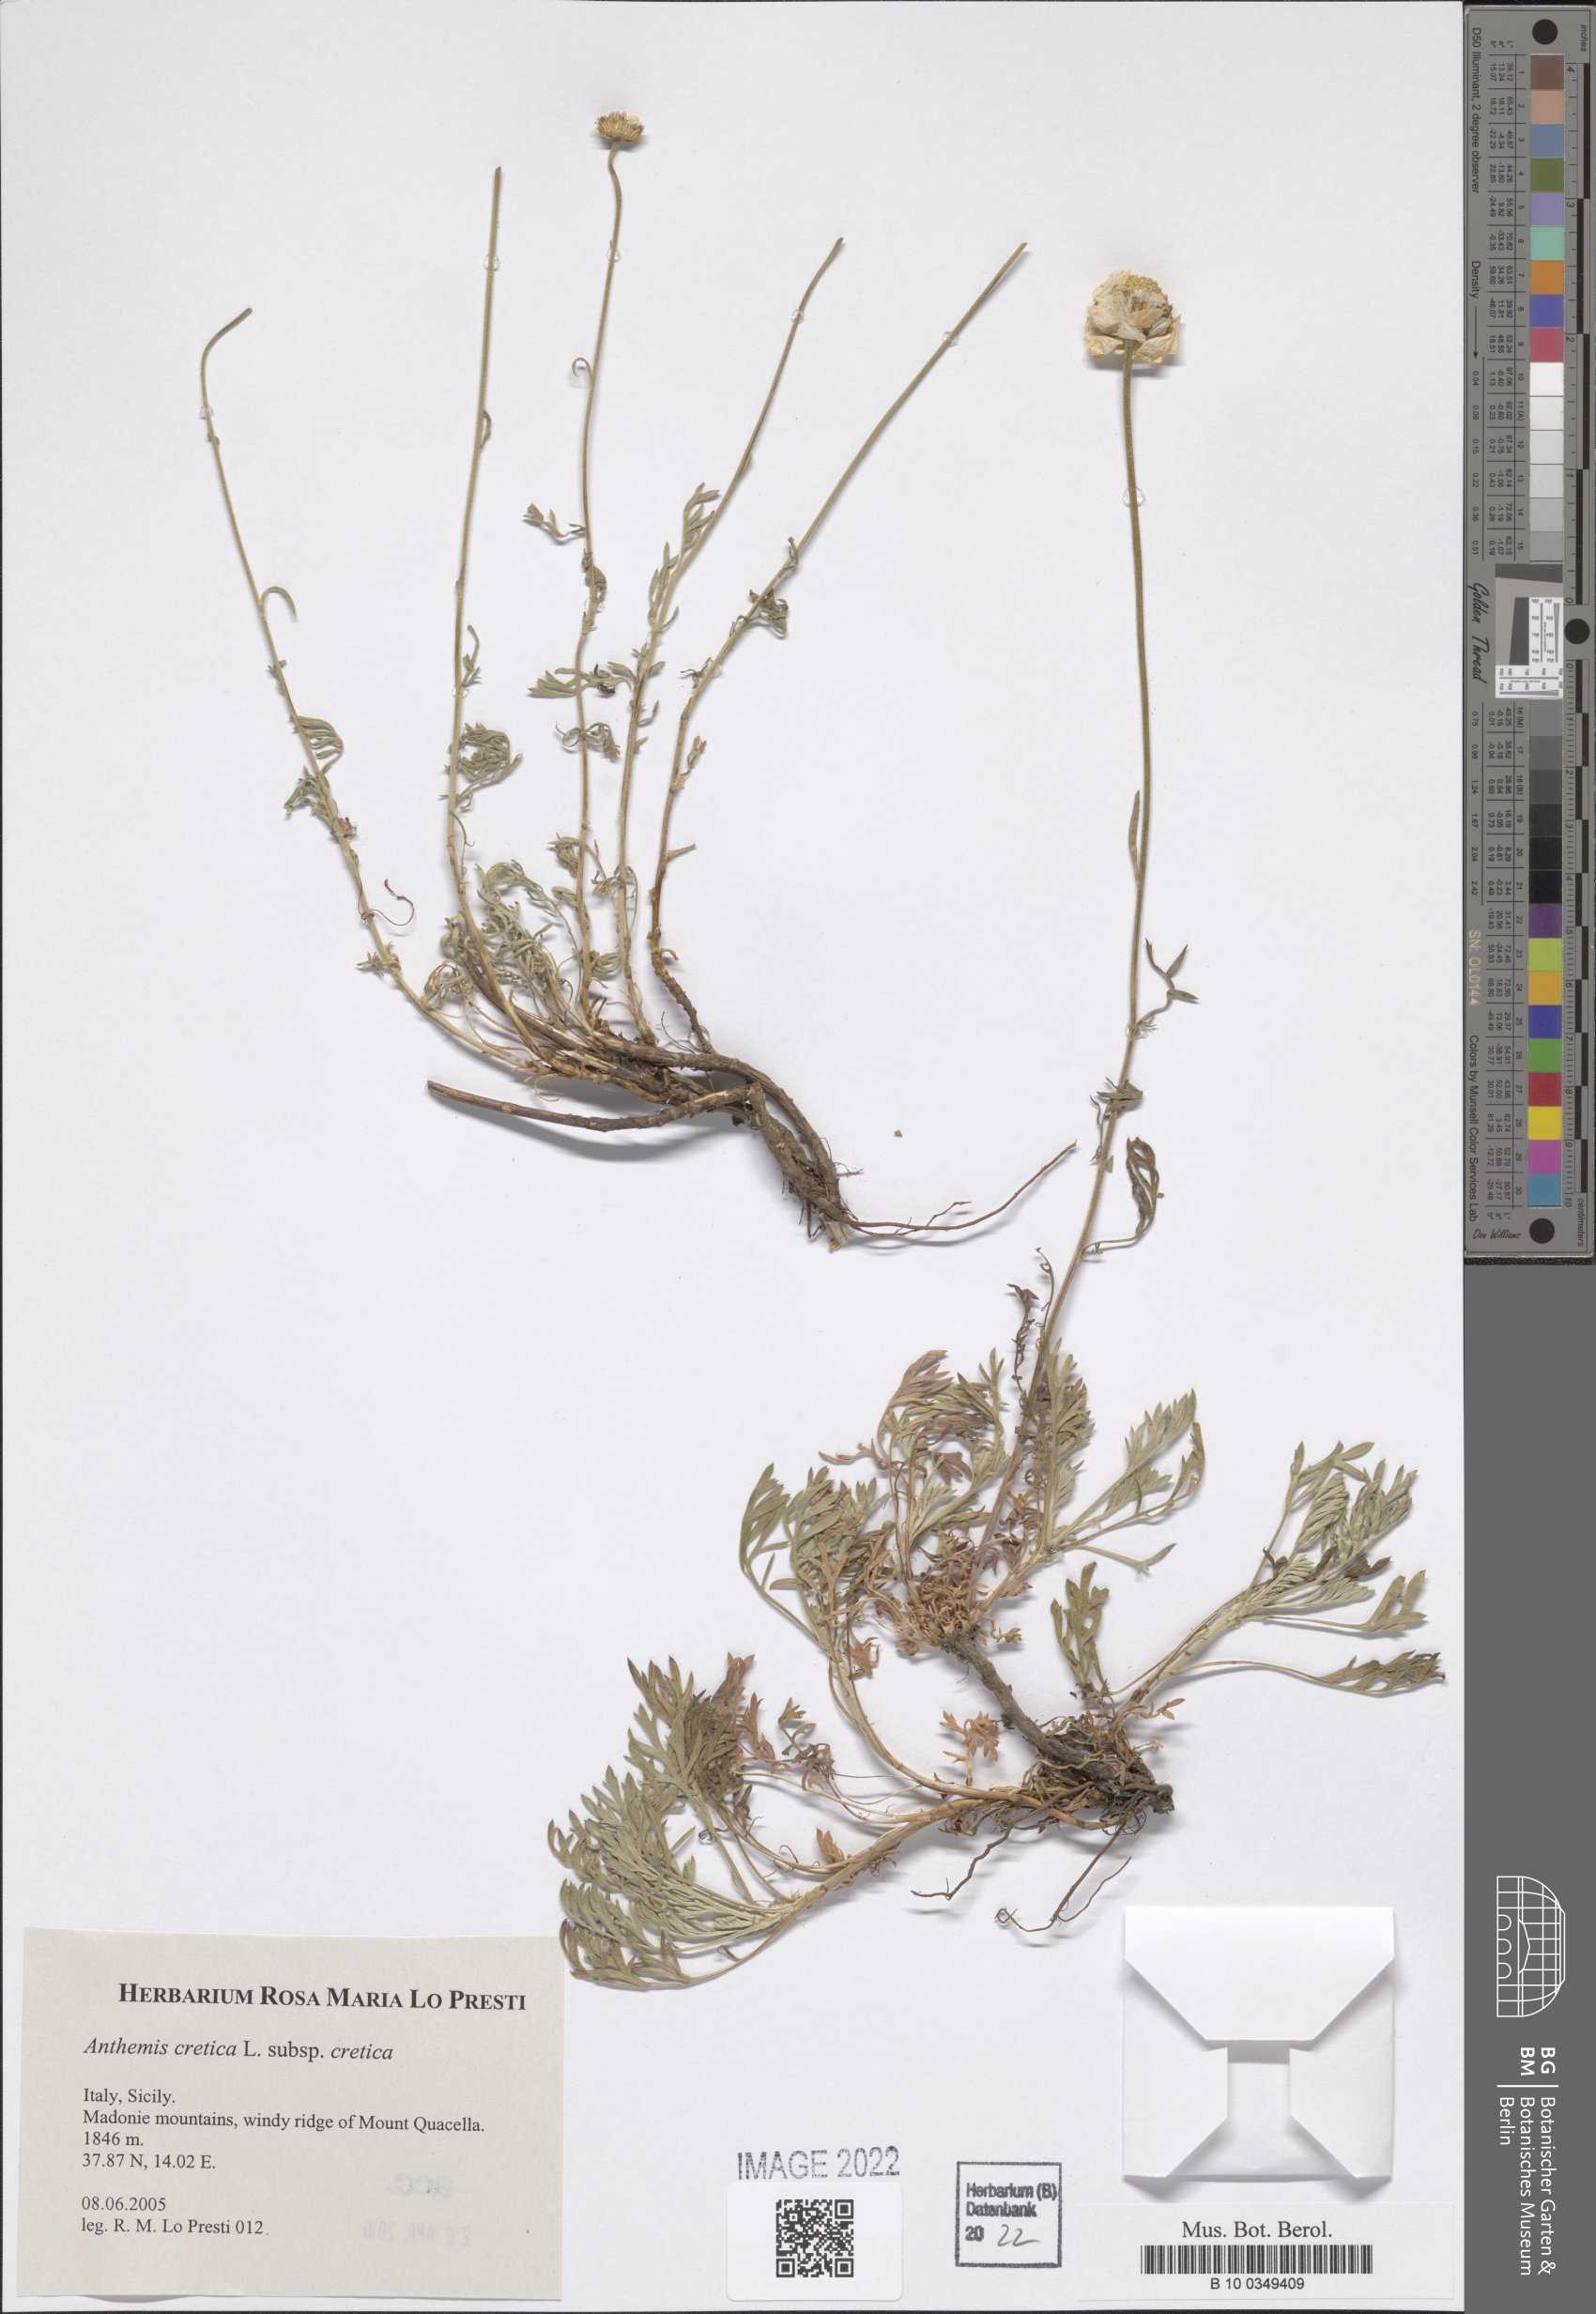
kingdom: Plantae
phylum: Tracheophyta
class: Magnoliopsida
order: Asterales
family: Asteraceae
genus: Anthemis
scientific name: Anthemis cretica
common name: Mountain dog-daisy
